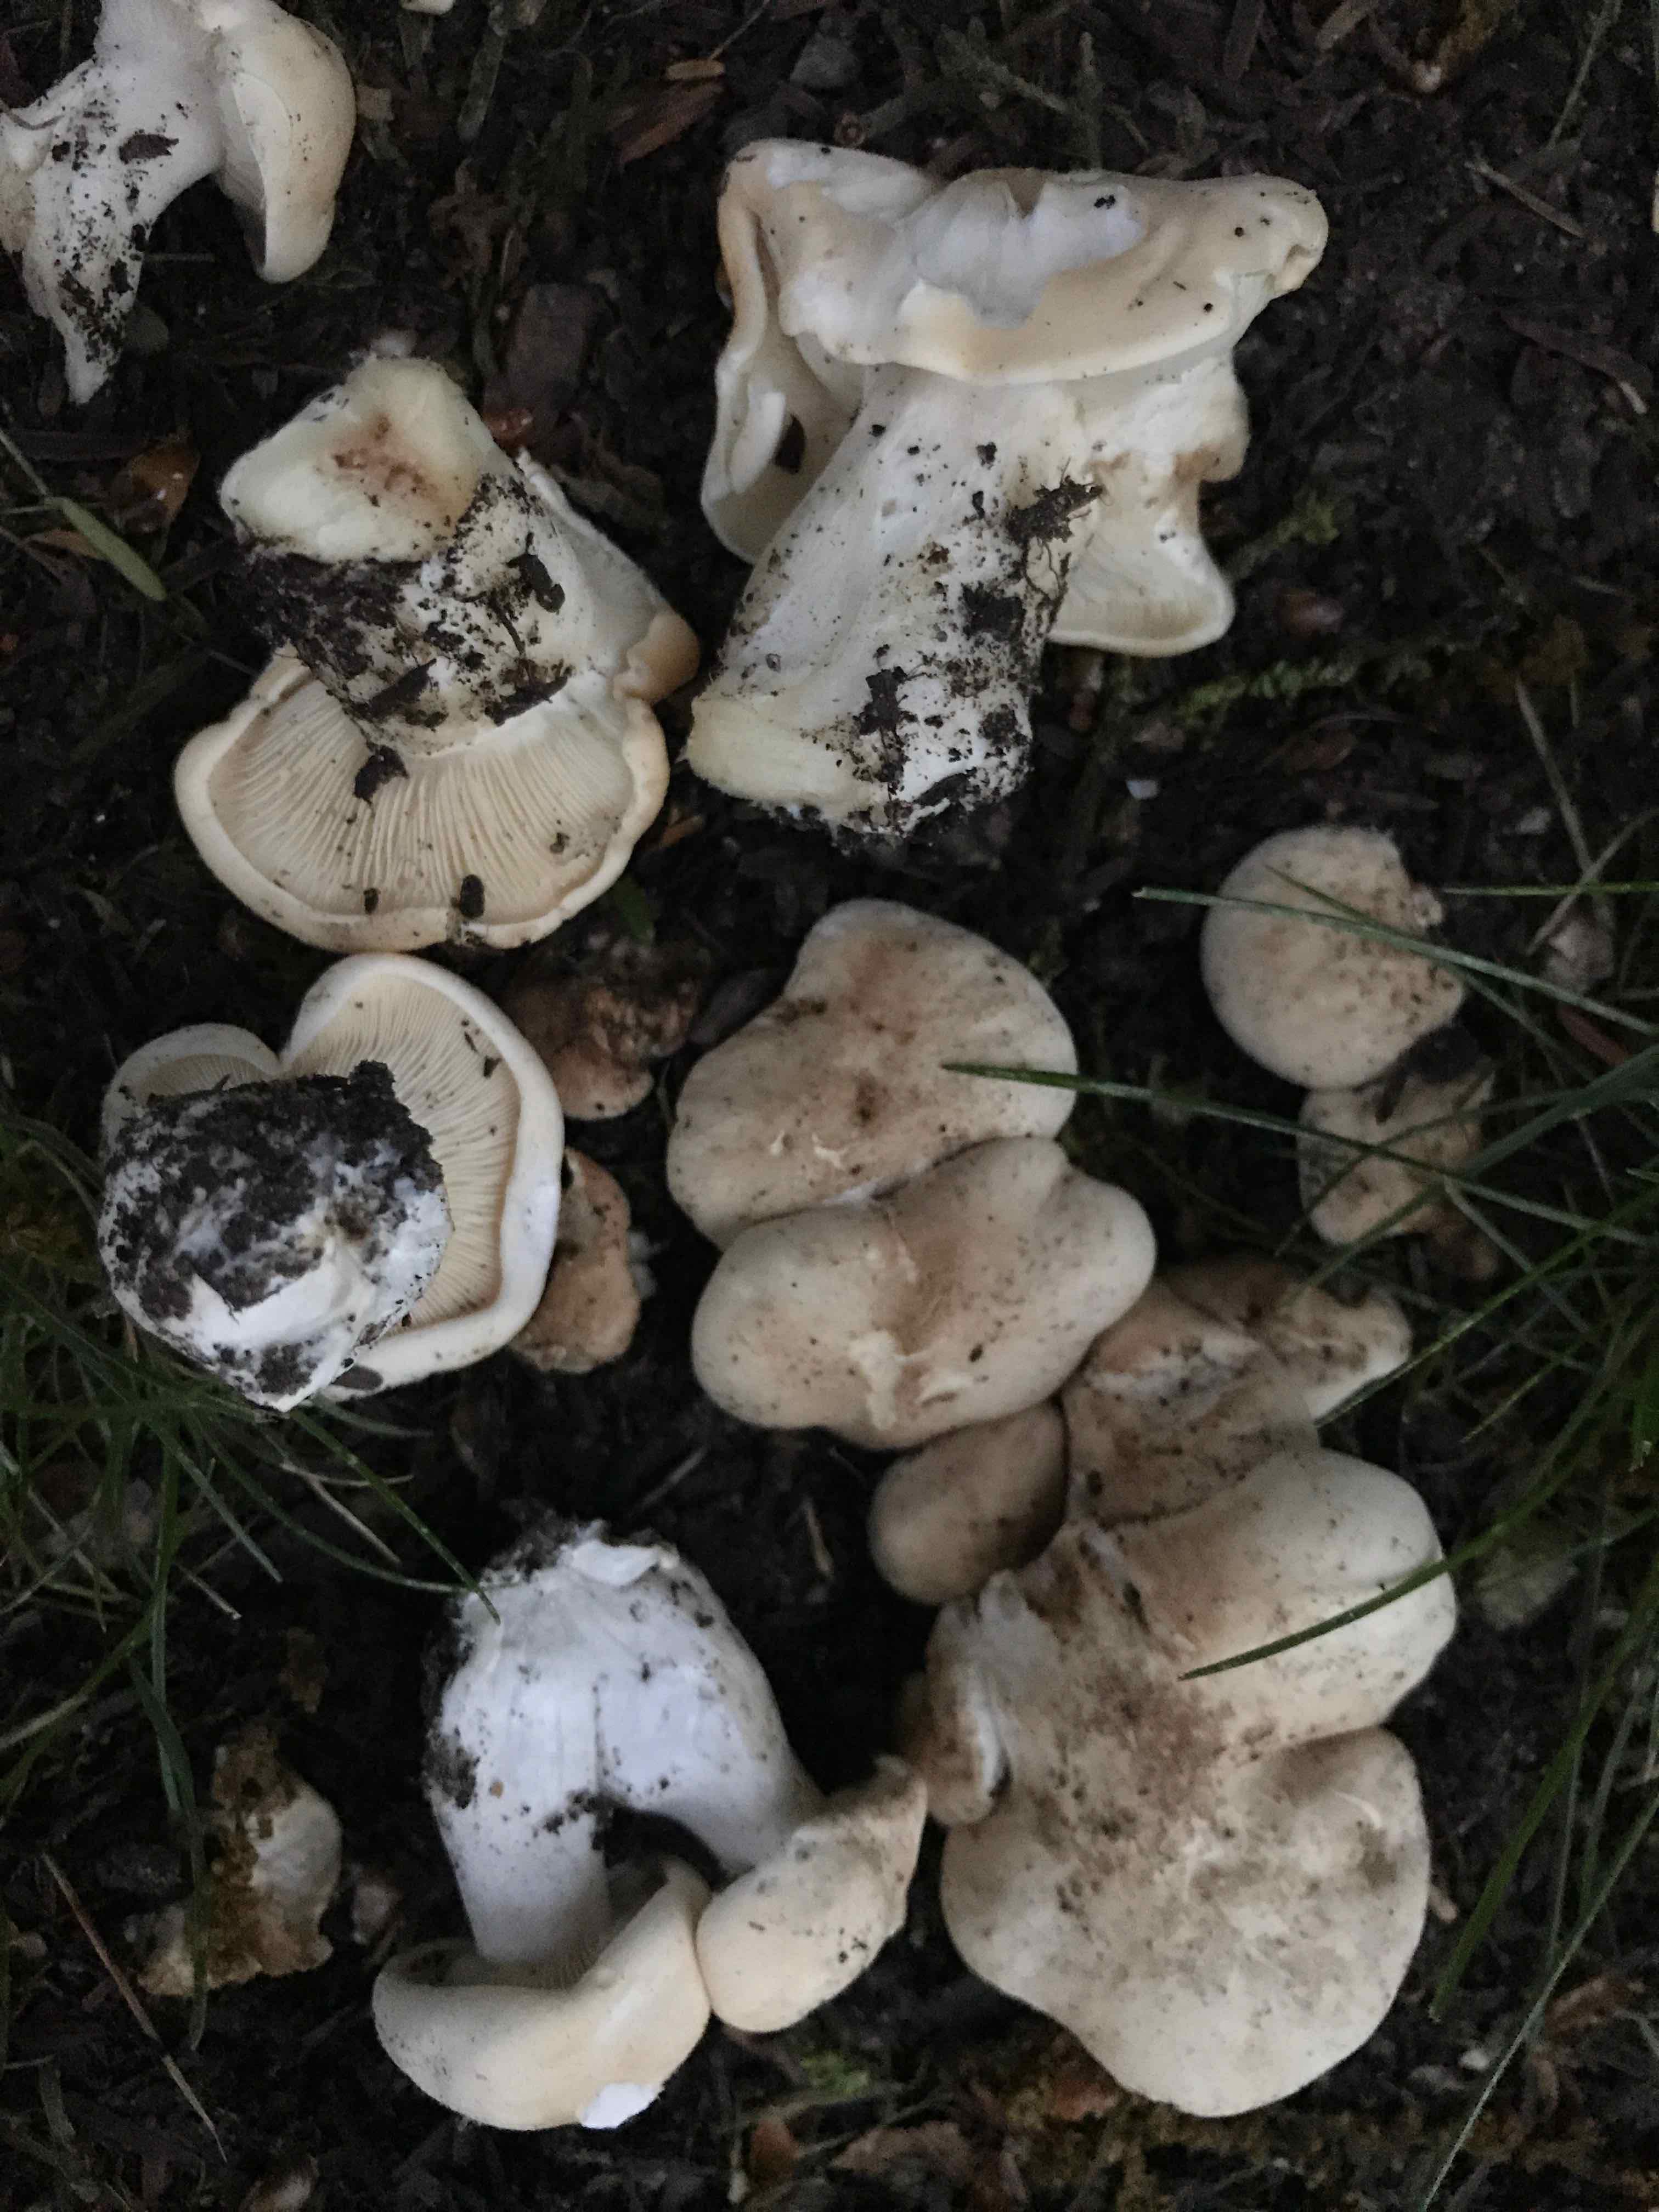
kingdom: Fungi
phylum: Basidiomycota
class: Agaricomycetes
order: Agaricales
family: Lyophyllaceae
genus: Calocybe
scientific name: Calocybe gambosa
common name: vårmusseron
